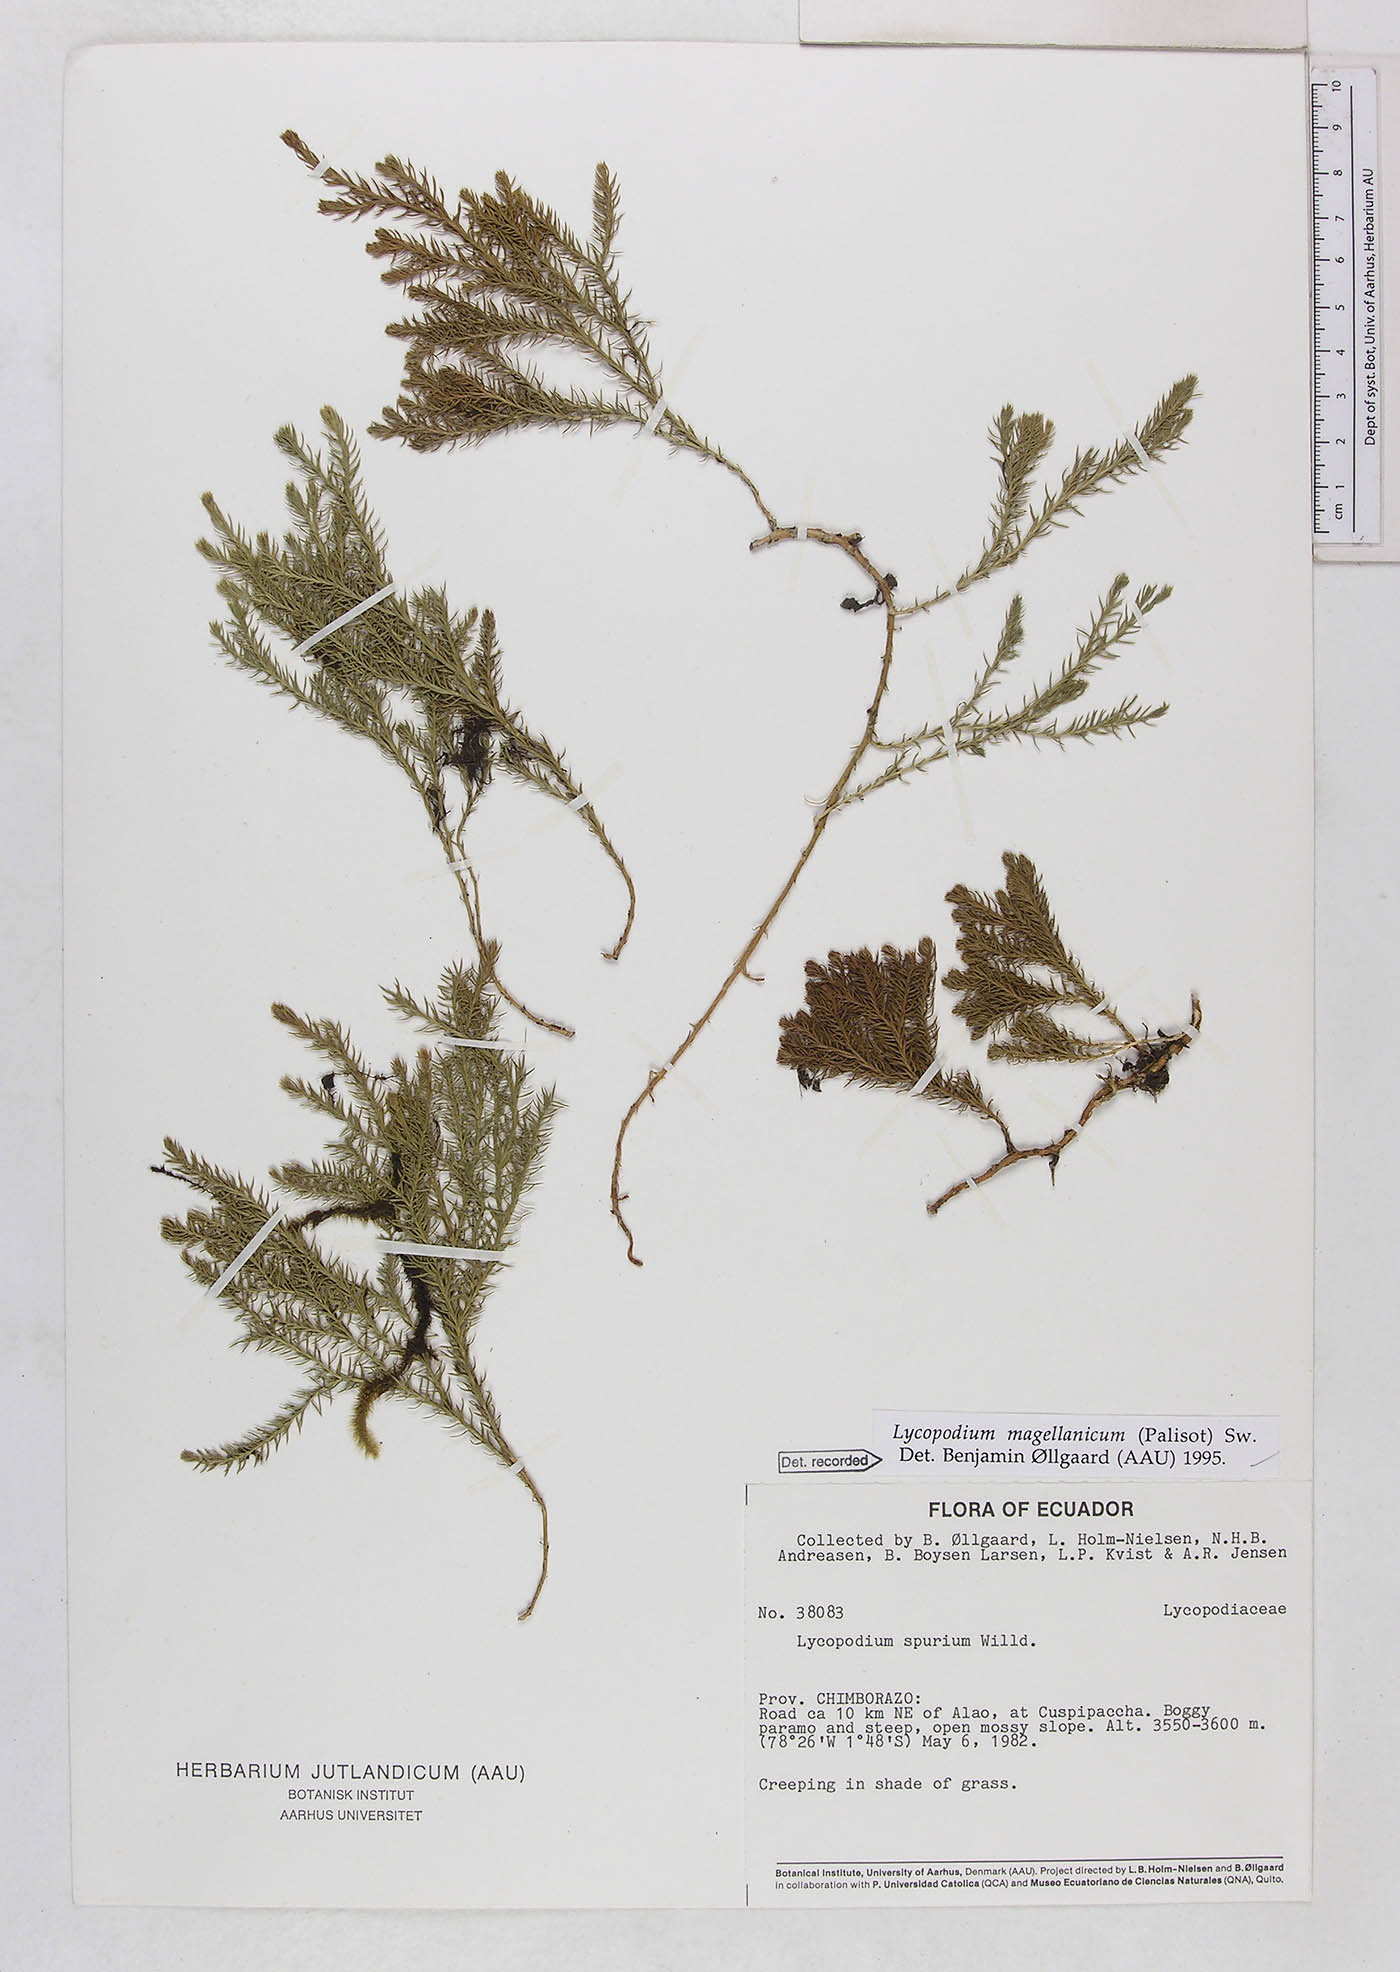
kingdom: Plantae
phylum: Tracheophyta
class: Lycopodiopsida
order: Lycopodiales
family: Lycopodiaceae
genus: Austrolycopodium
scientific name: Austrolycopodium magellanicum
